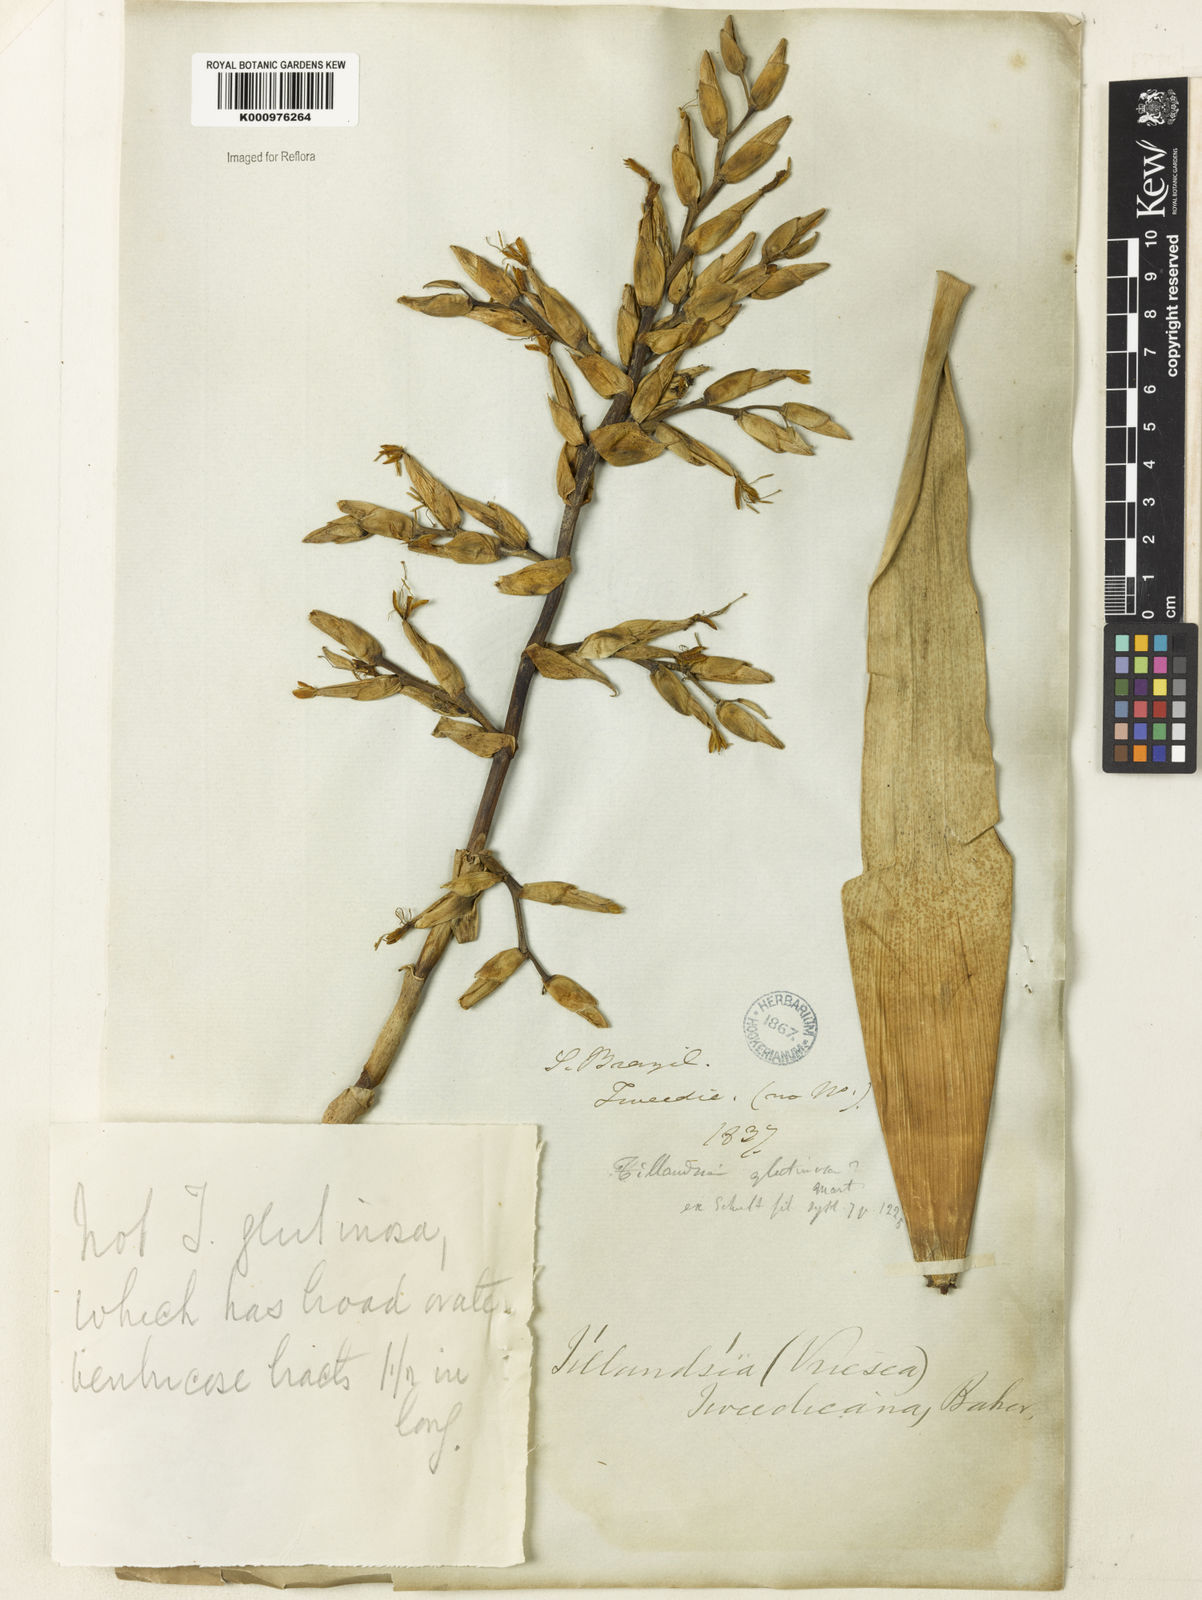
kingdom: Plantae
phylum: Tracheophyta
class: Liliopsida
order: Poales
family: Bromeliaceae
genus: Vriesea
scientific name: Vriesea rodigasiana
